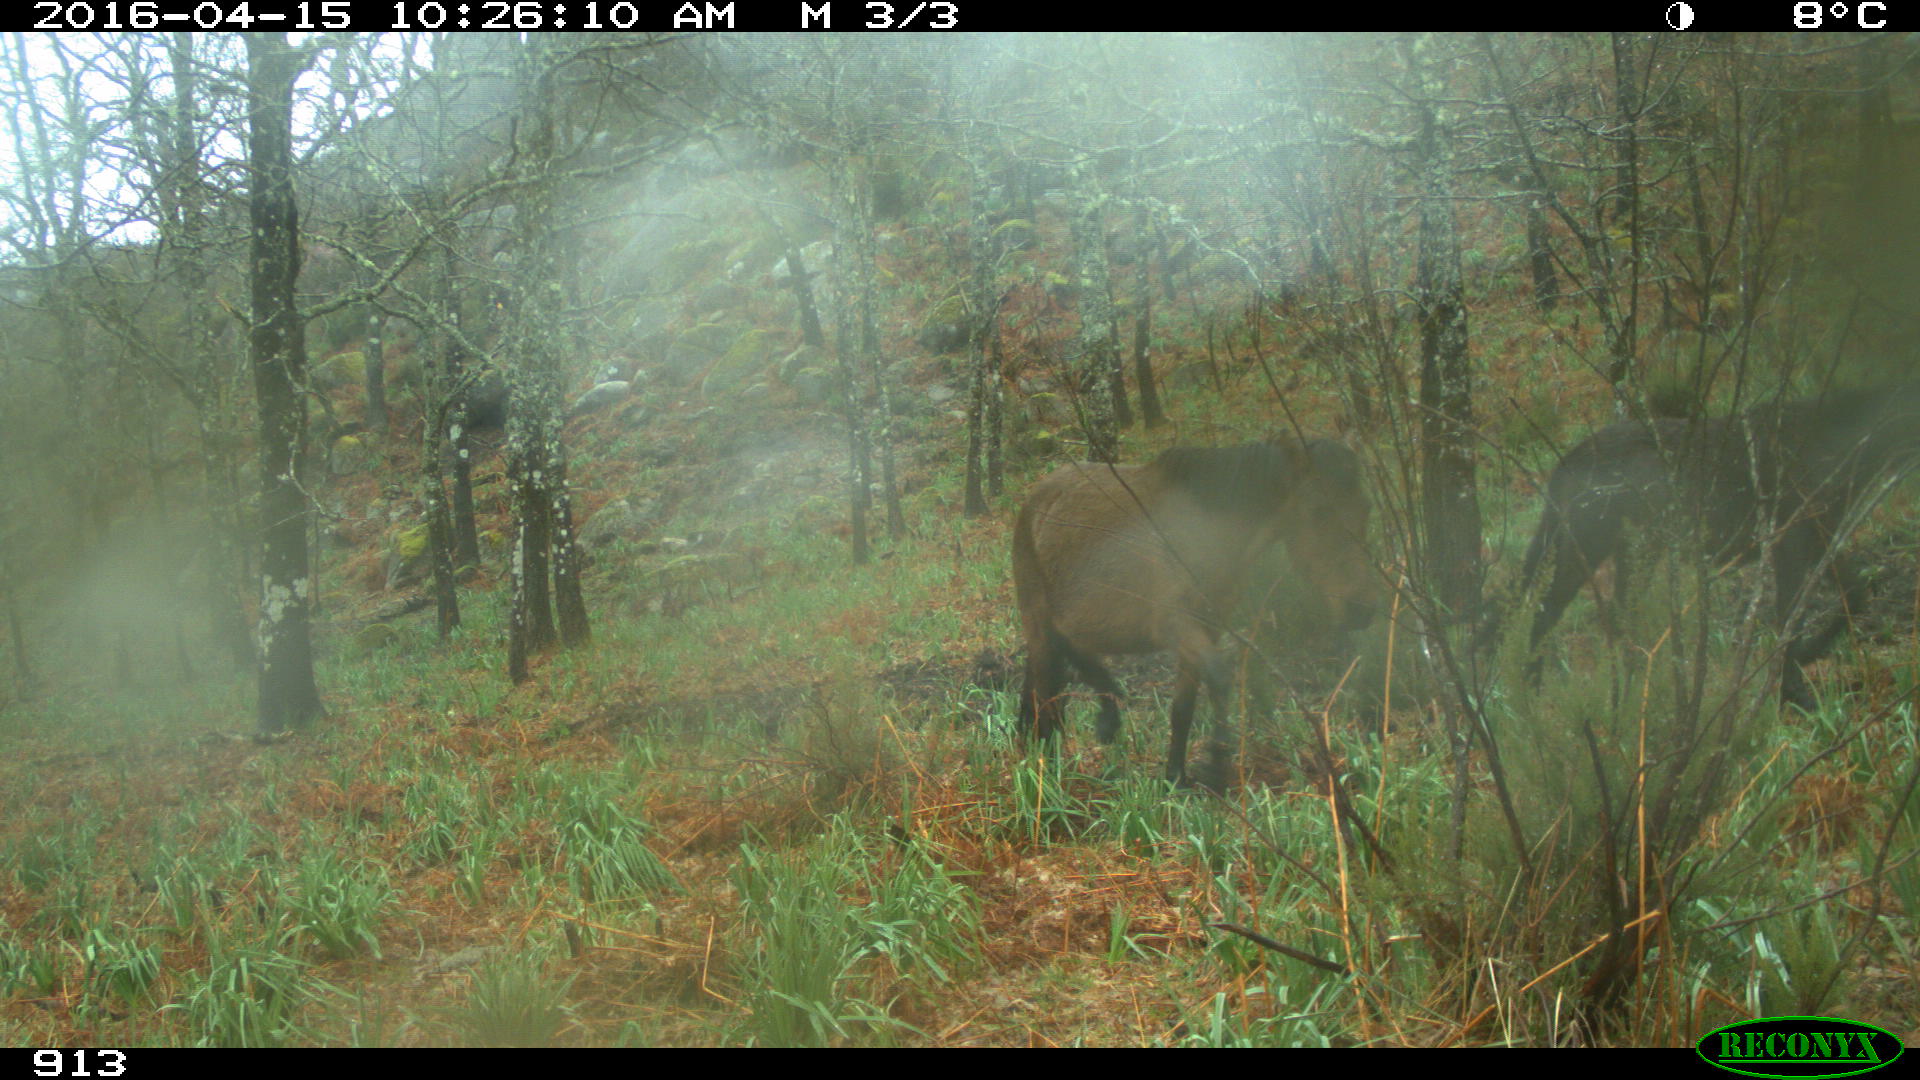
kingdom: Animalia
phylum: Chordata
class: Mammalia
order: Perissodactyla
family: Equidae
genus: Equus
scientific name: Equus caballus
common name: Horse
